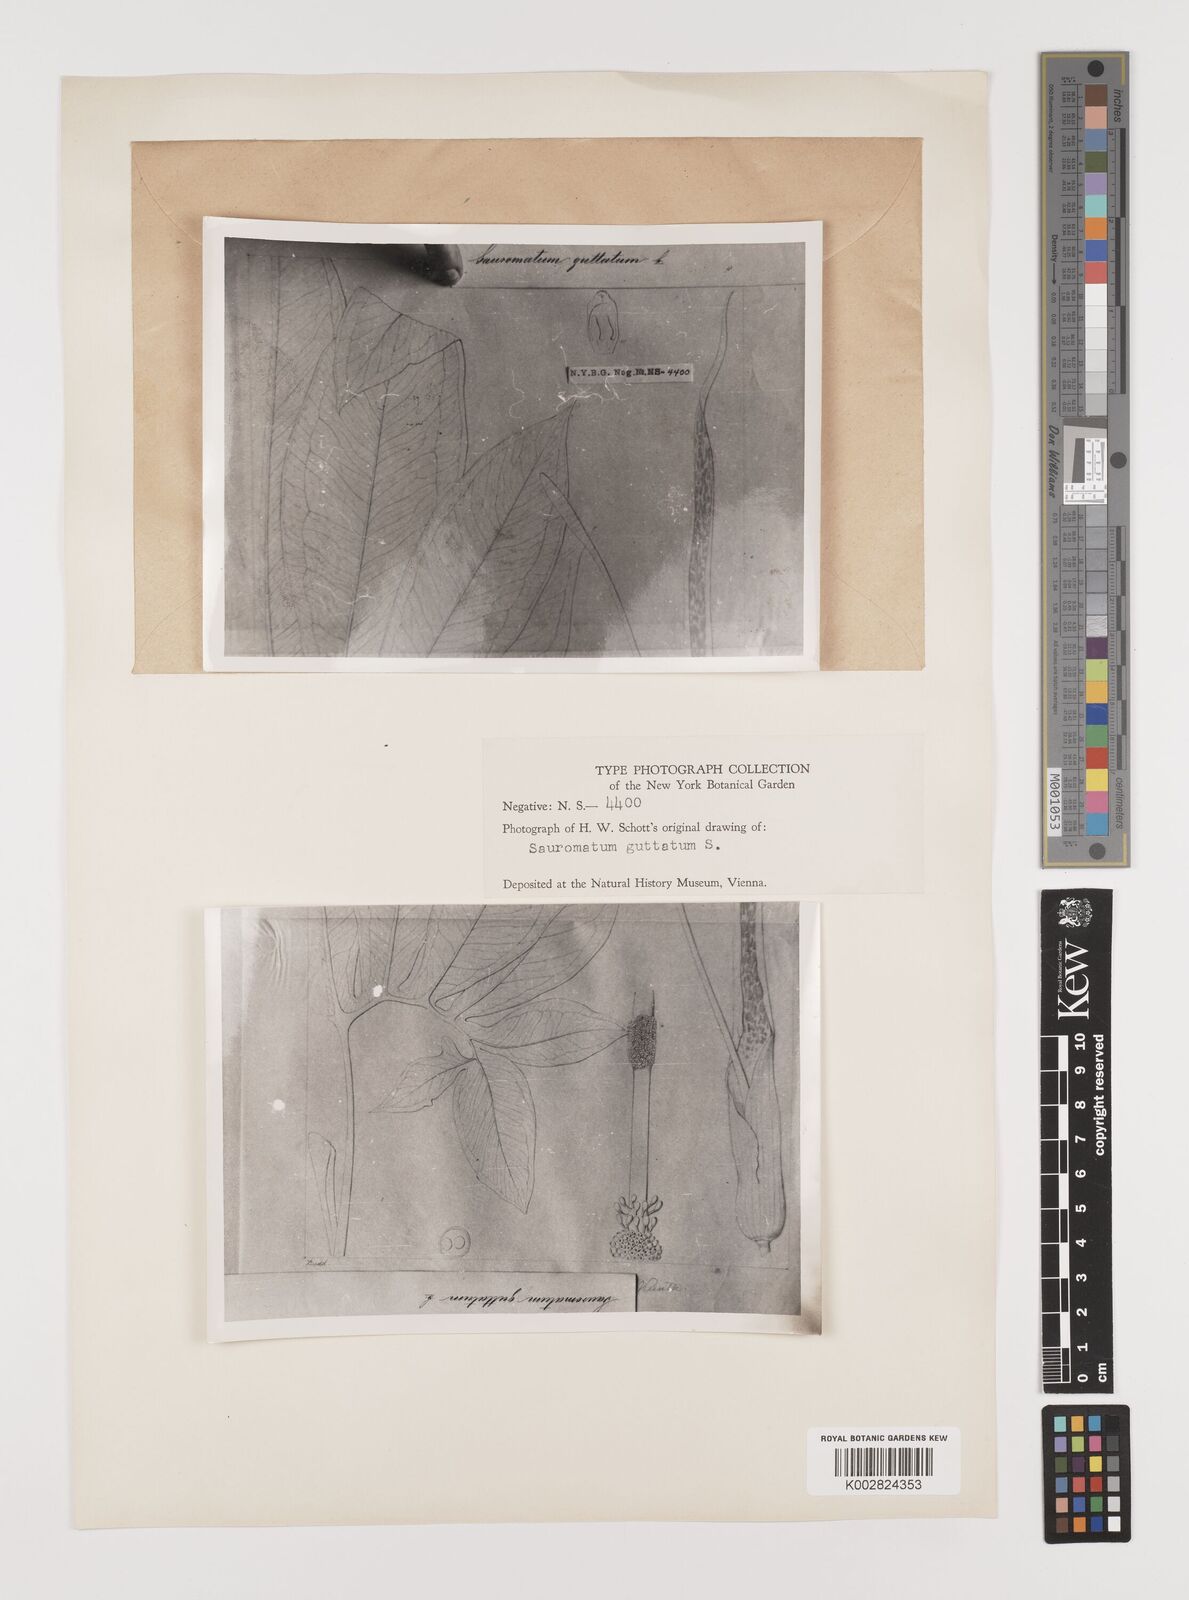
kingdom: Plantae
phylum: Tracheophyta
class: Liliopsida
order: Alismatales
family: Araceae
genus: Sauromatum
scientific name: Sauromatum venosum
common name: Voodoo lily
